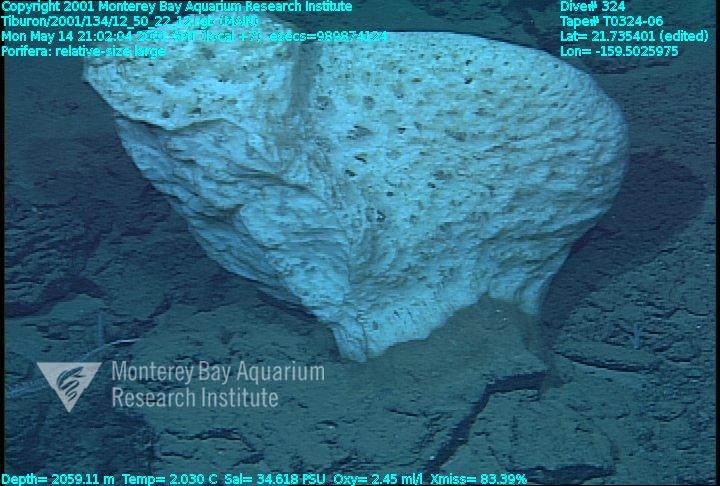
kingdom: Animalia
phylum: Porifera
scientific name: Porifera
